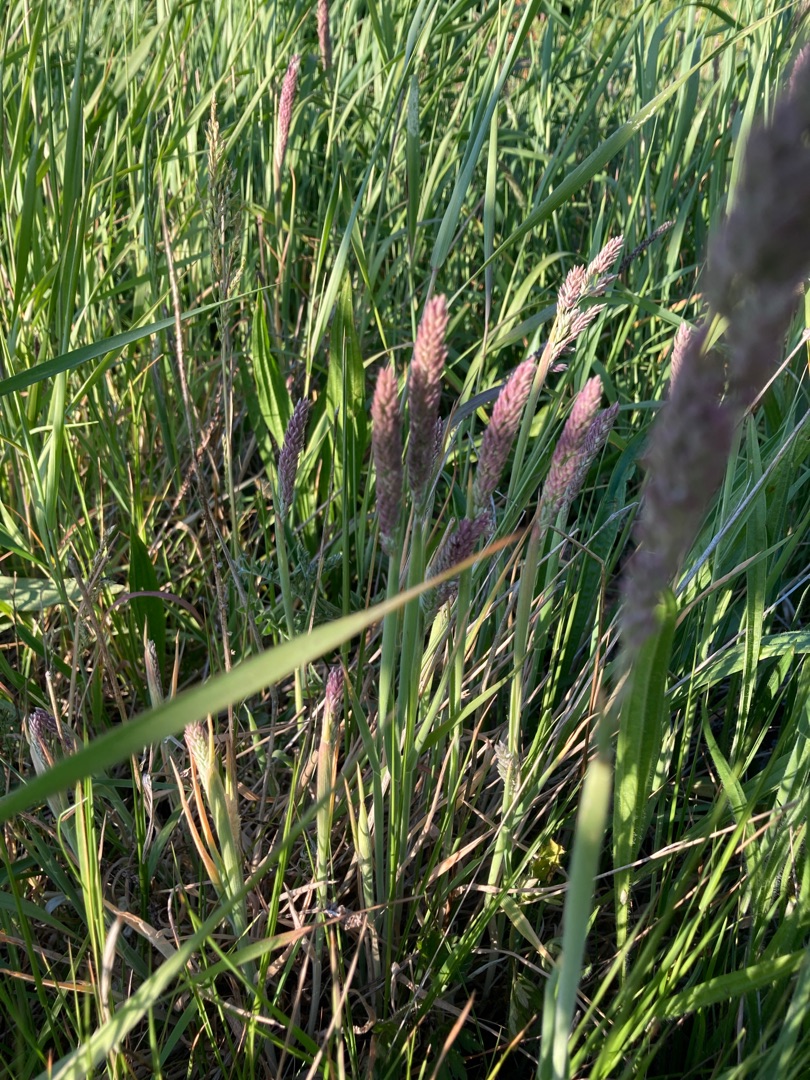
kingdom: Plantae
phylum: Tracheophyta
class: Liliopsida
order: Poales
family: Poaceae
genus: Holcus
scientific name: Holcus lanatus
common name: Fløjlsgræs
